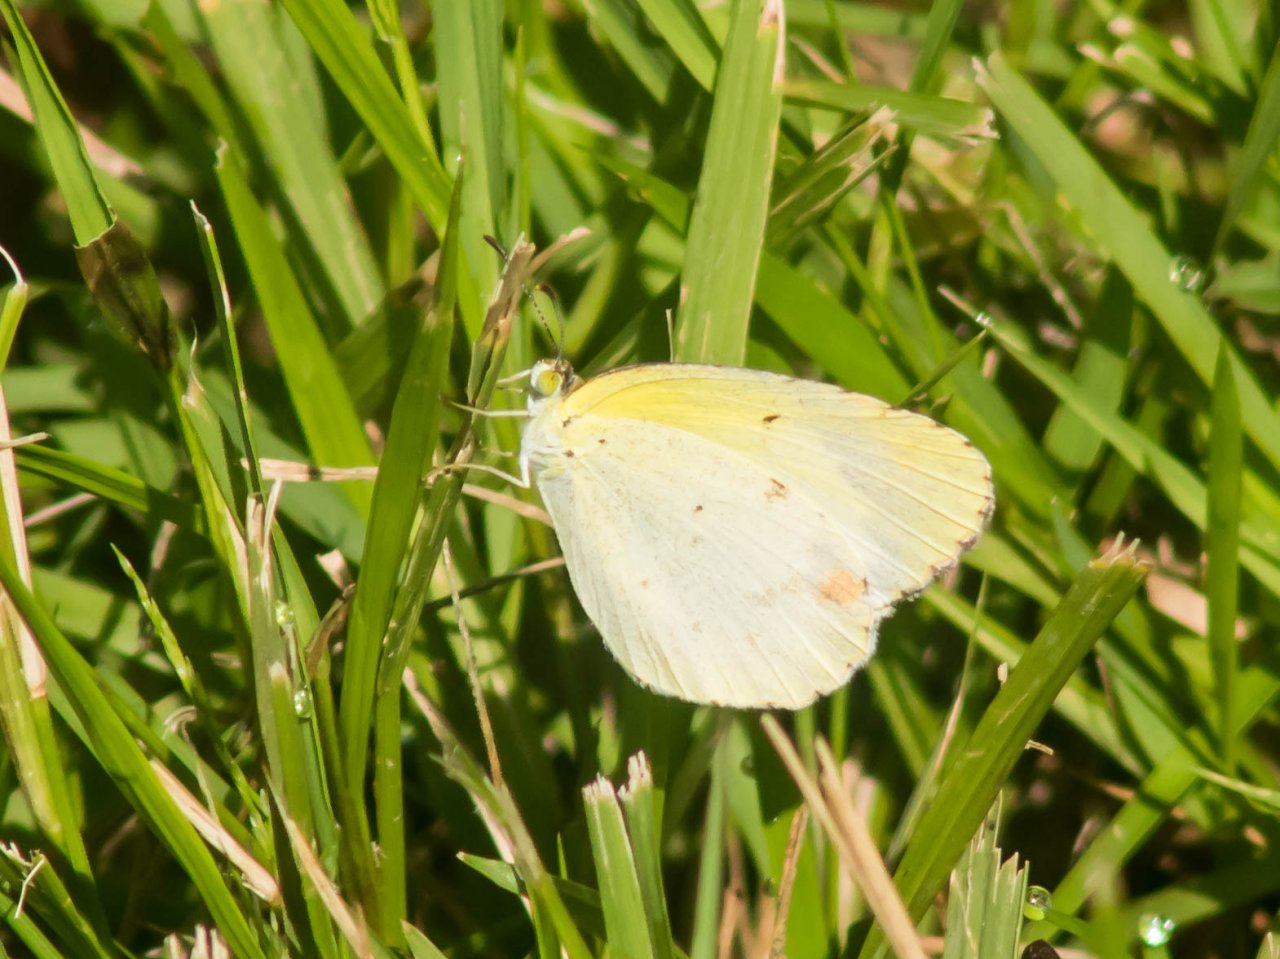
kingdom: Animalia
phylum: Arthropoda
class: Insecta
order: Lepidoptera
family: Pieridae
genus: Pyrisitia
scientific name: Pyrisitia lisa
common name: Little Yellow
